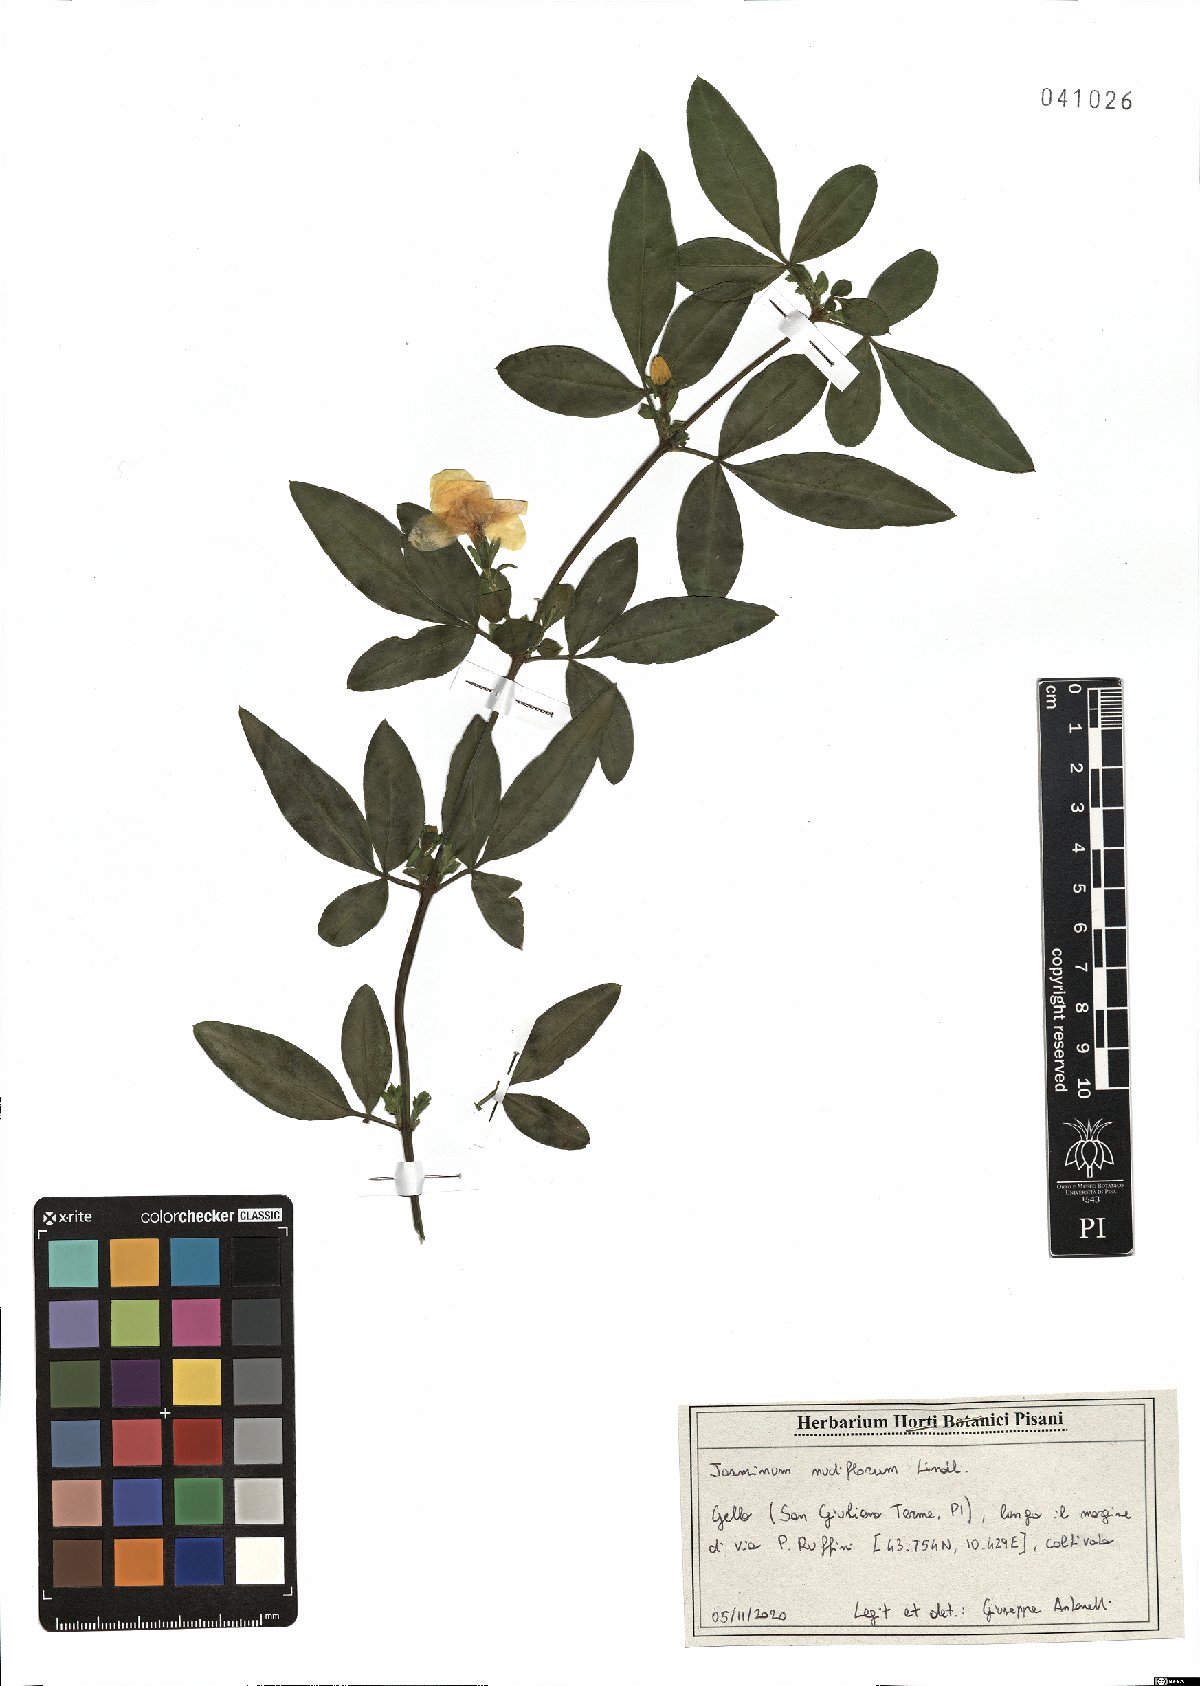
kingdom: Plantae
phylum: Tracheophyta
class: Magnoliopsida
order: Lamiales
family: Oleaceae
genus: Jasminum
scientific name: Jasminum nudiflorum
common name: Winter jasmine
